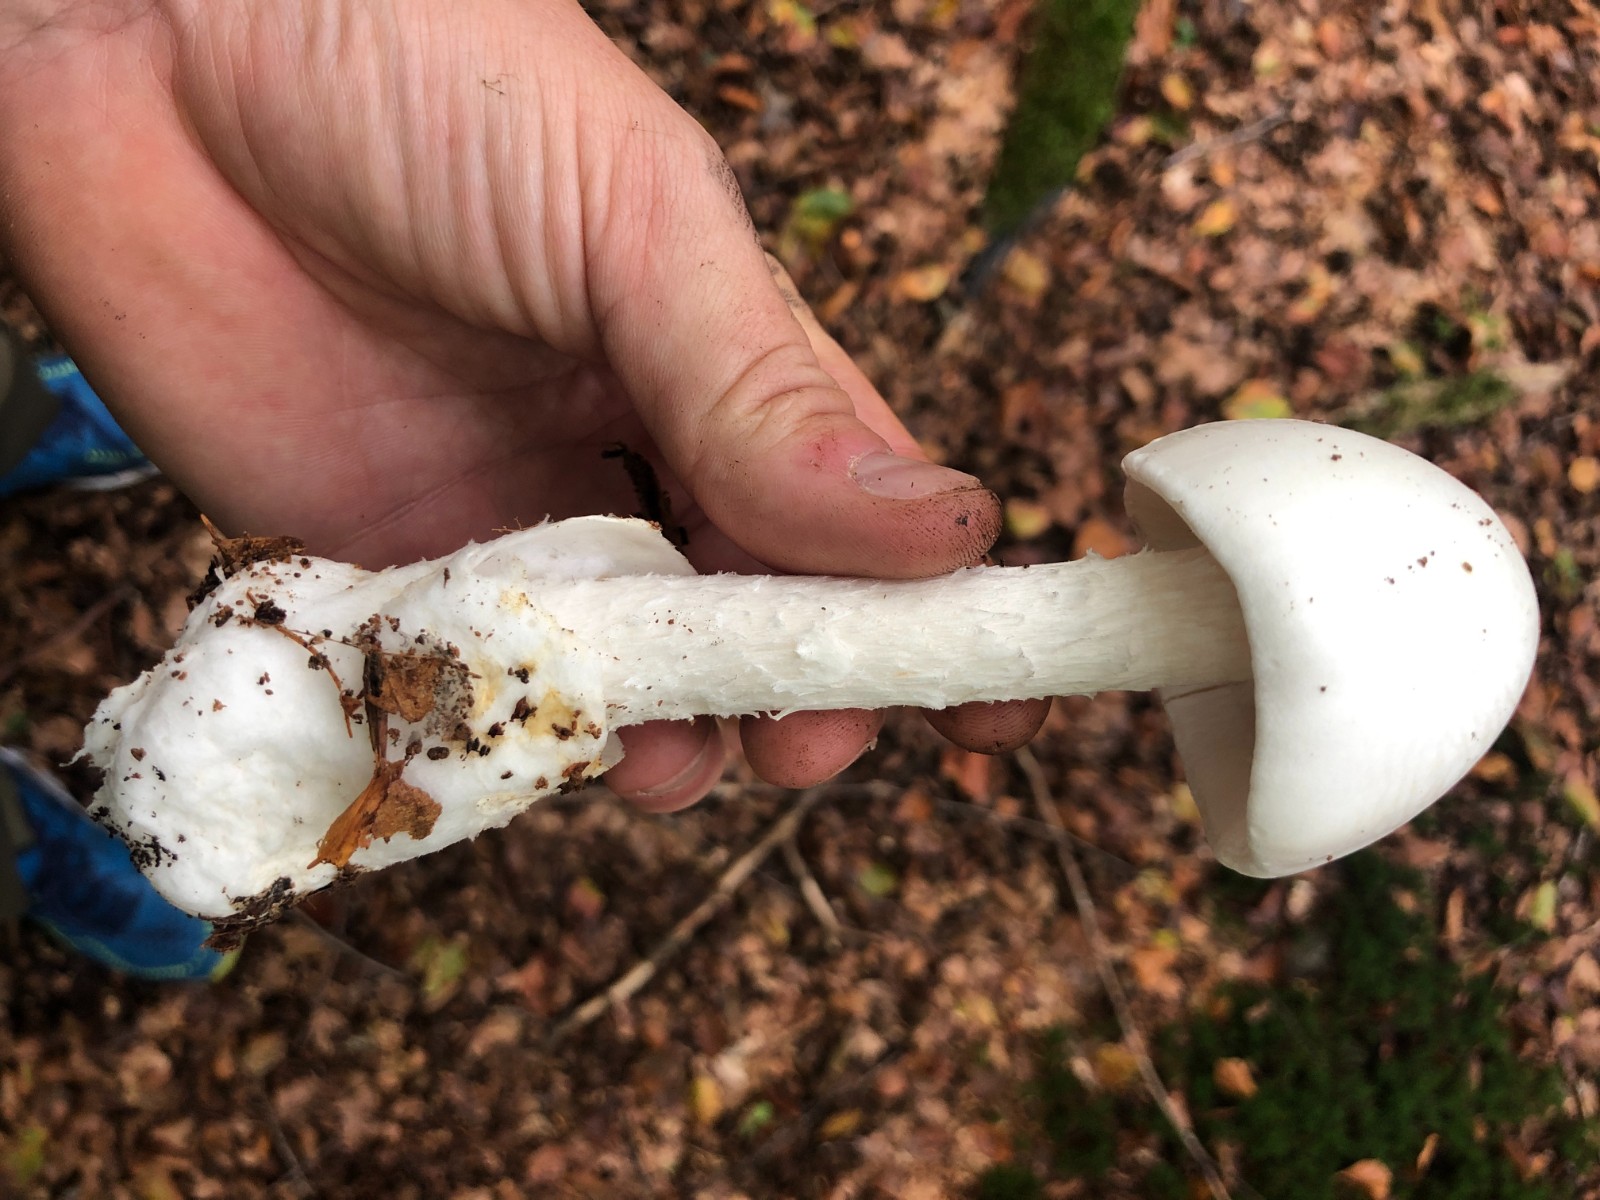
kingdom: Fungi
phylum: Basidiomycota
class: Agaricomycetes
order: Agaricales
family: Amanitaceae
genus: Amanita
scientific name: Amanita virosa
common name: snehvid fluesvamp
